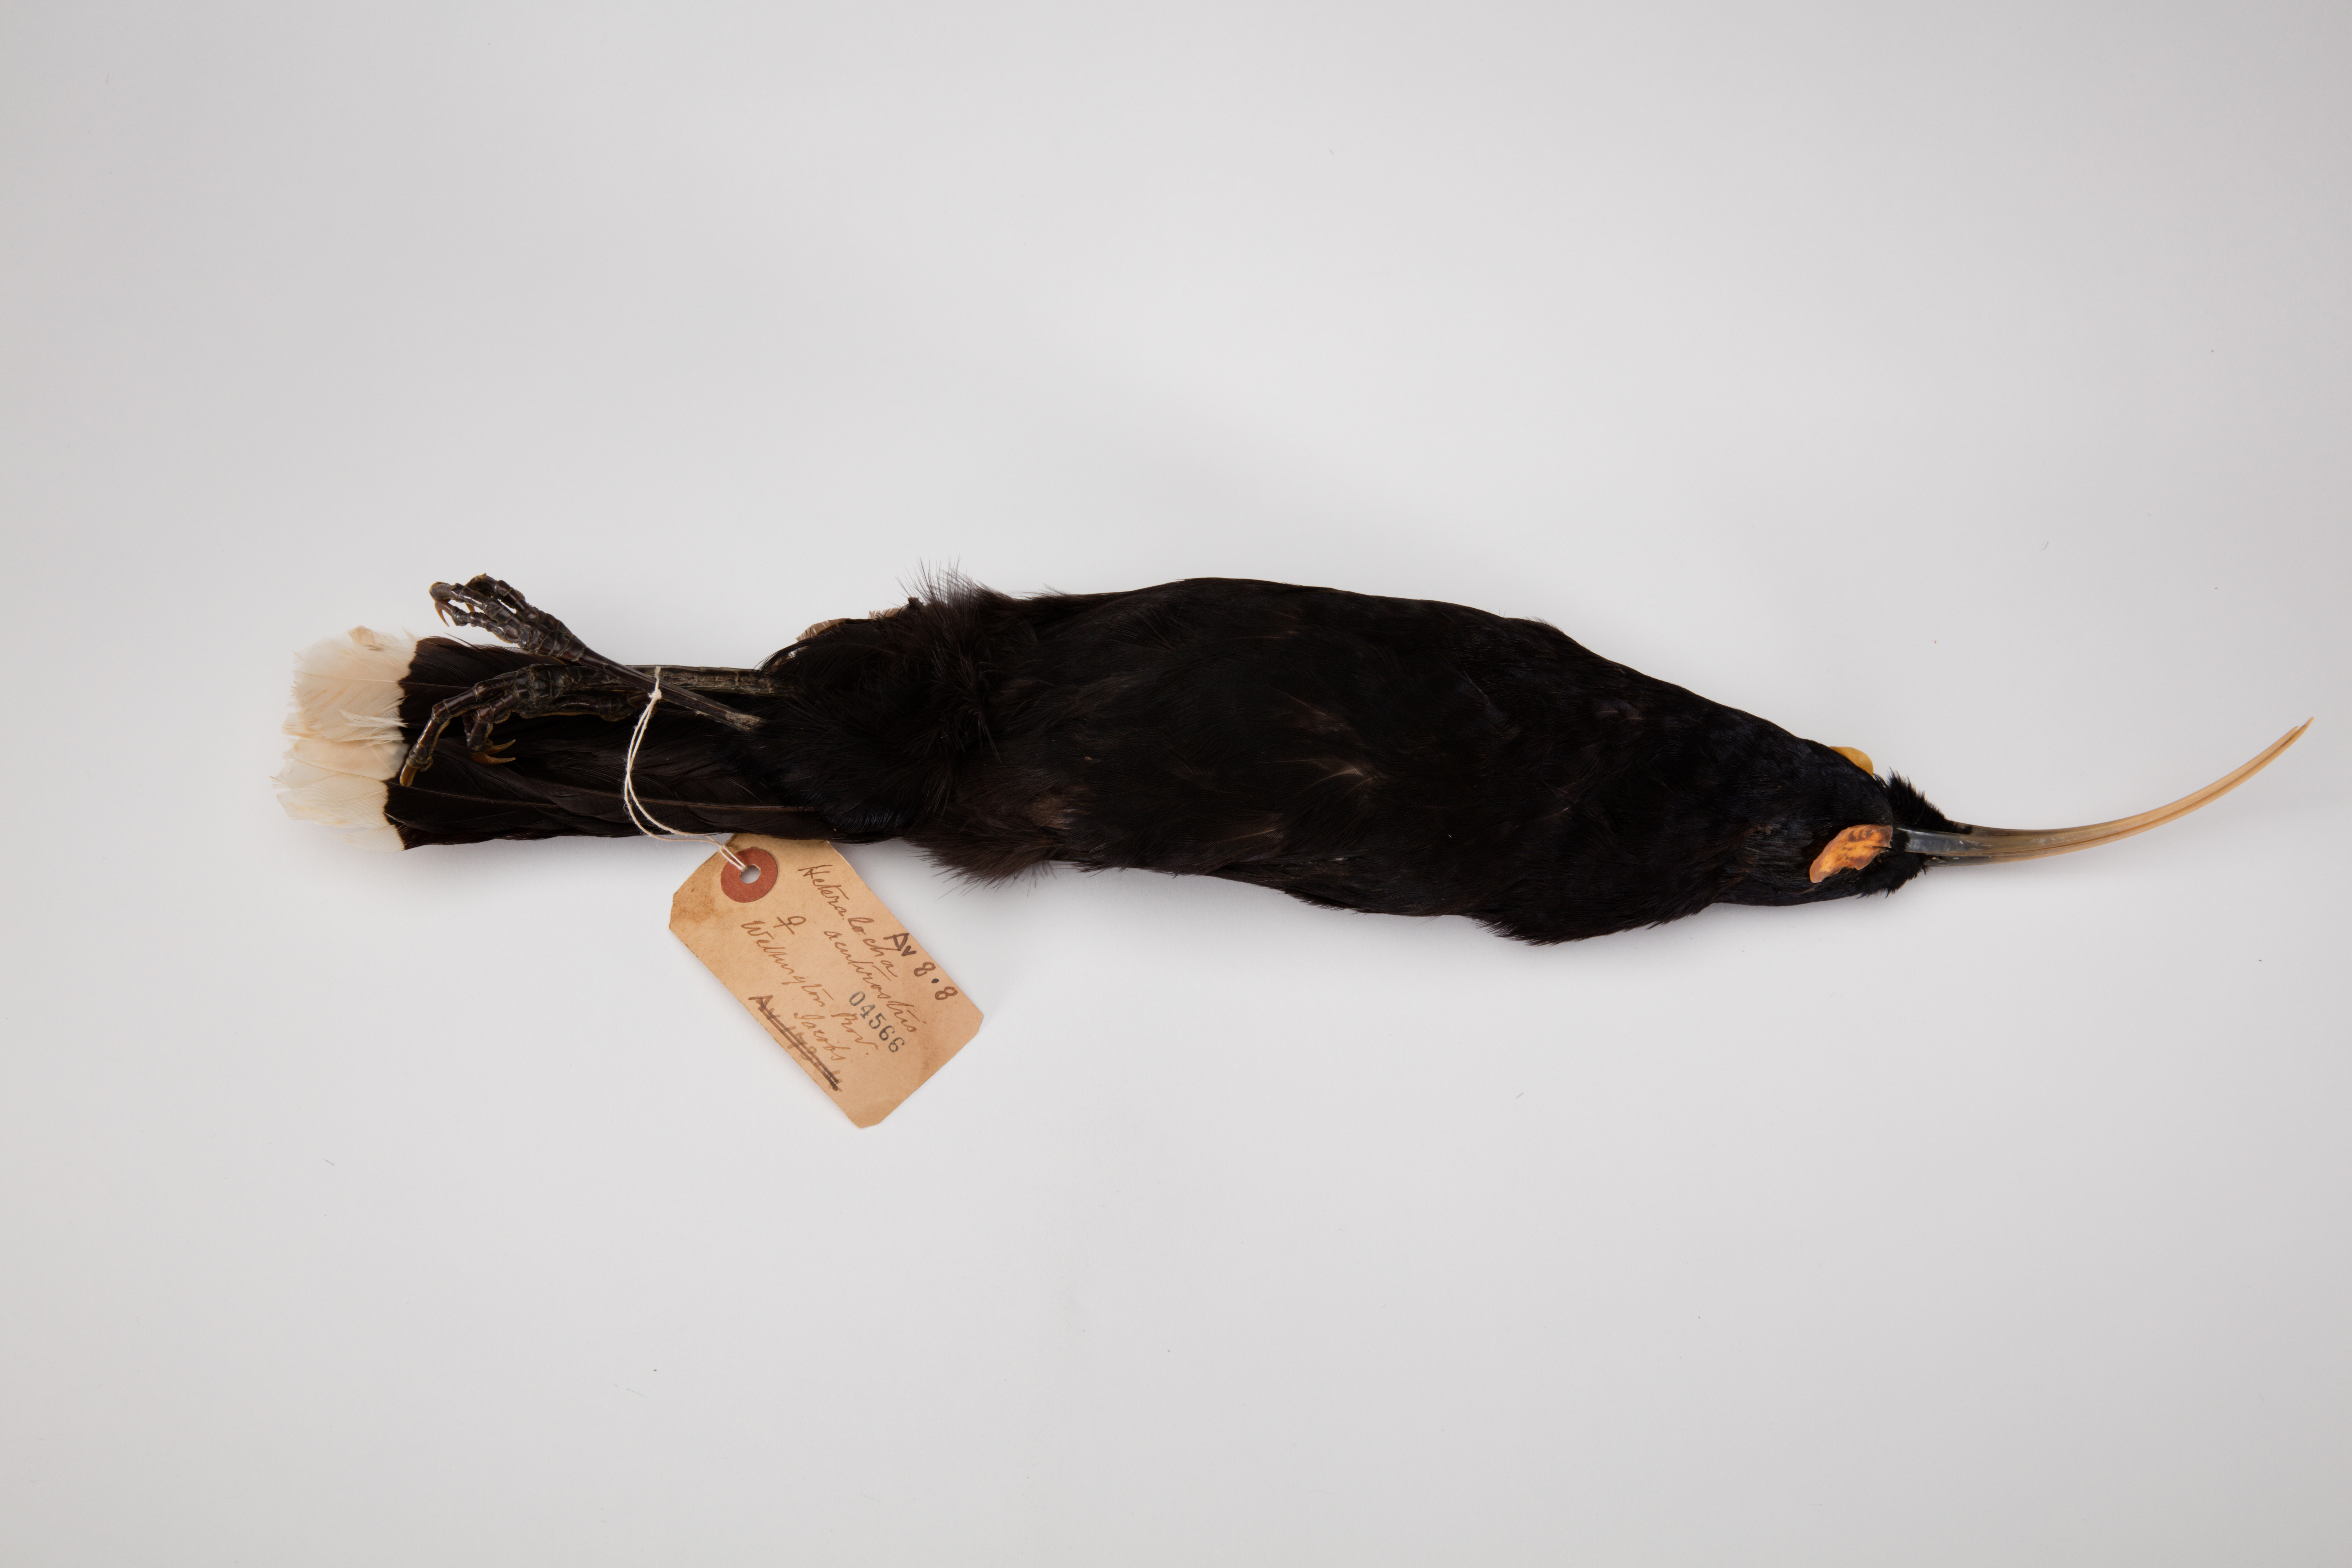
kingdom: Animalia
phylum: Chordata
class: Aves
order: Passeriformes
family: Callaeatidae
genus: Heteralocha
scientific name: Heteralocha acutirostris
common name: Huia
